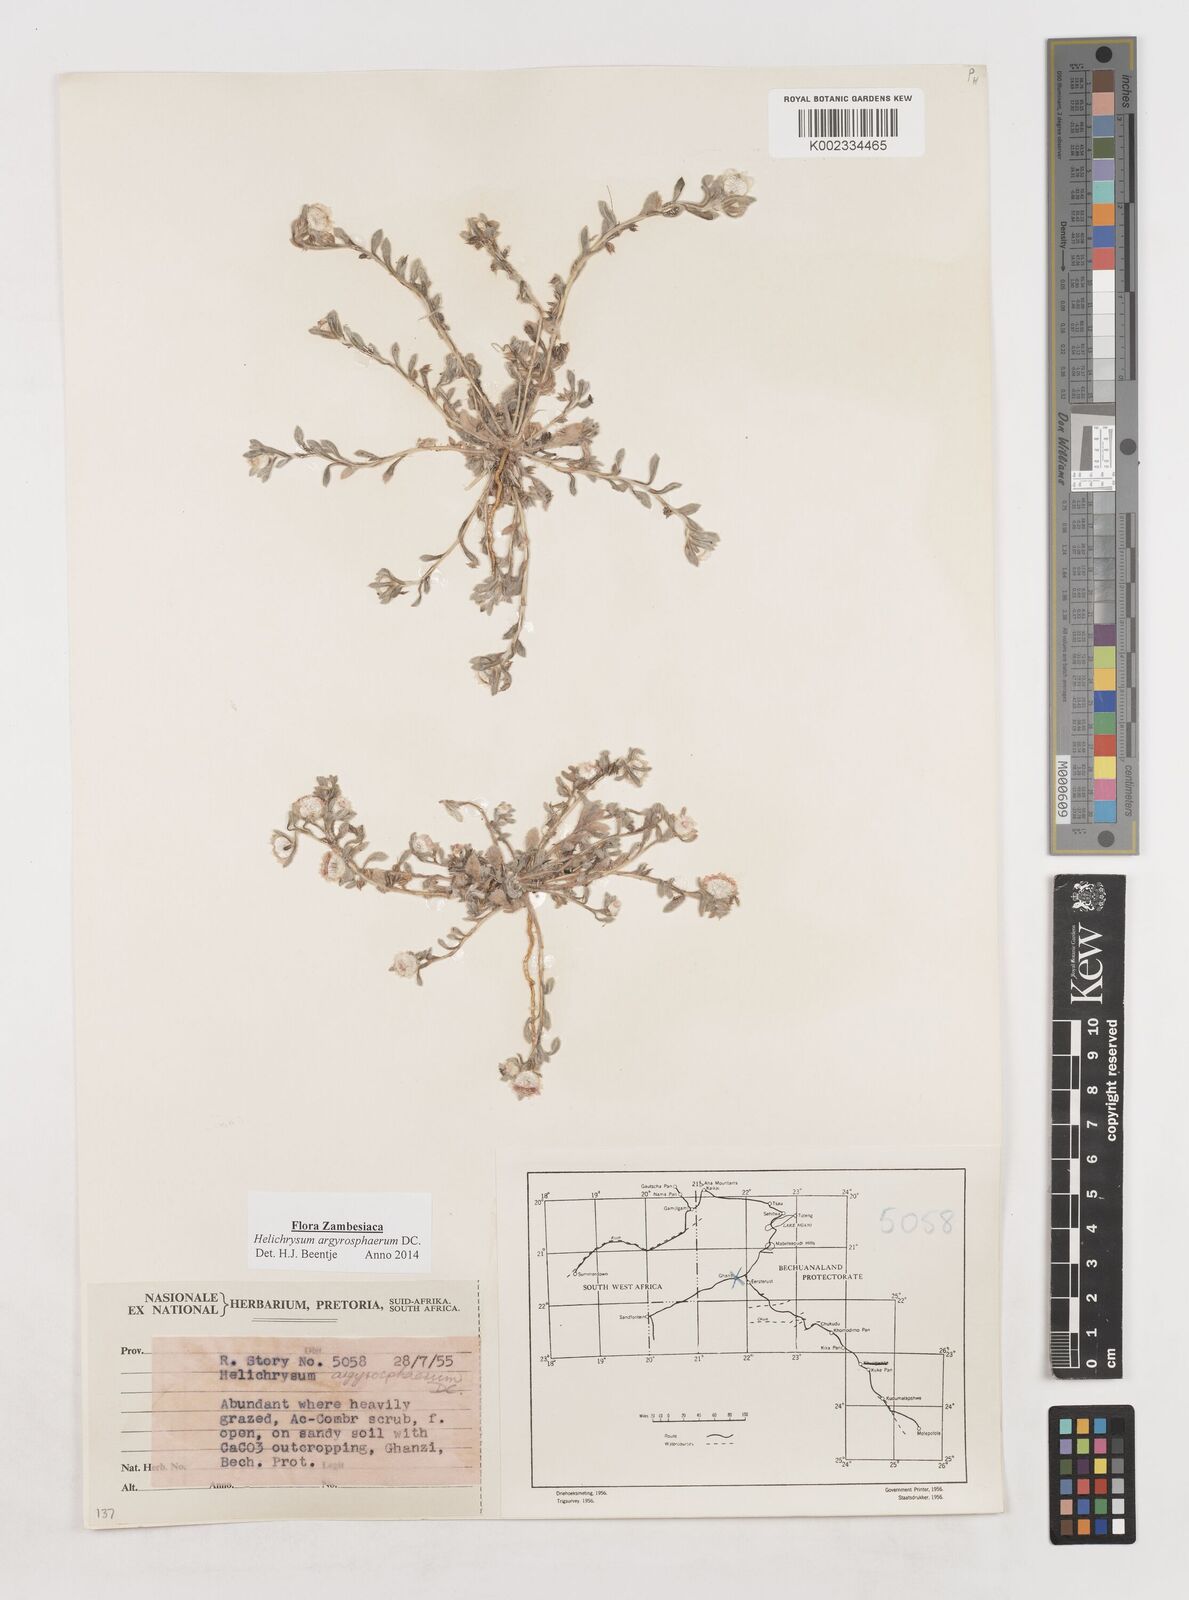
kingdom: Plantae
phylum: Tracheophyta
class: Magnoliopsida
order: Asterales
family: Asteraceae
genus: Helichrysum
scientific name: Helichrysum argyrosphaerum
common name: Wild everlasting
